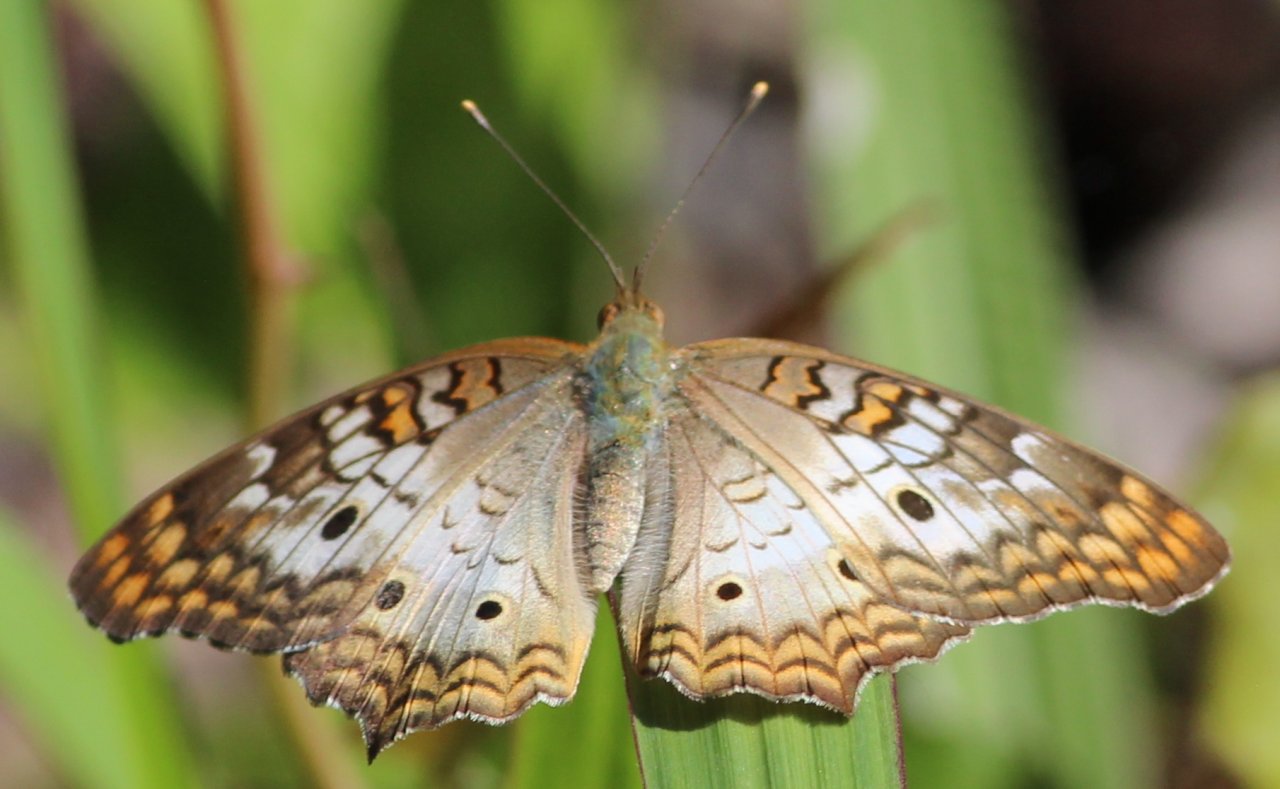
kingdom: Animalia
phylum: Arthropoda
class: Insecta
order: Lepidoptera
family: Nymphalidae
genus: Anartia
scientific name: Anartia jatrophae
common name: White Peacock
